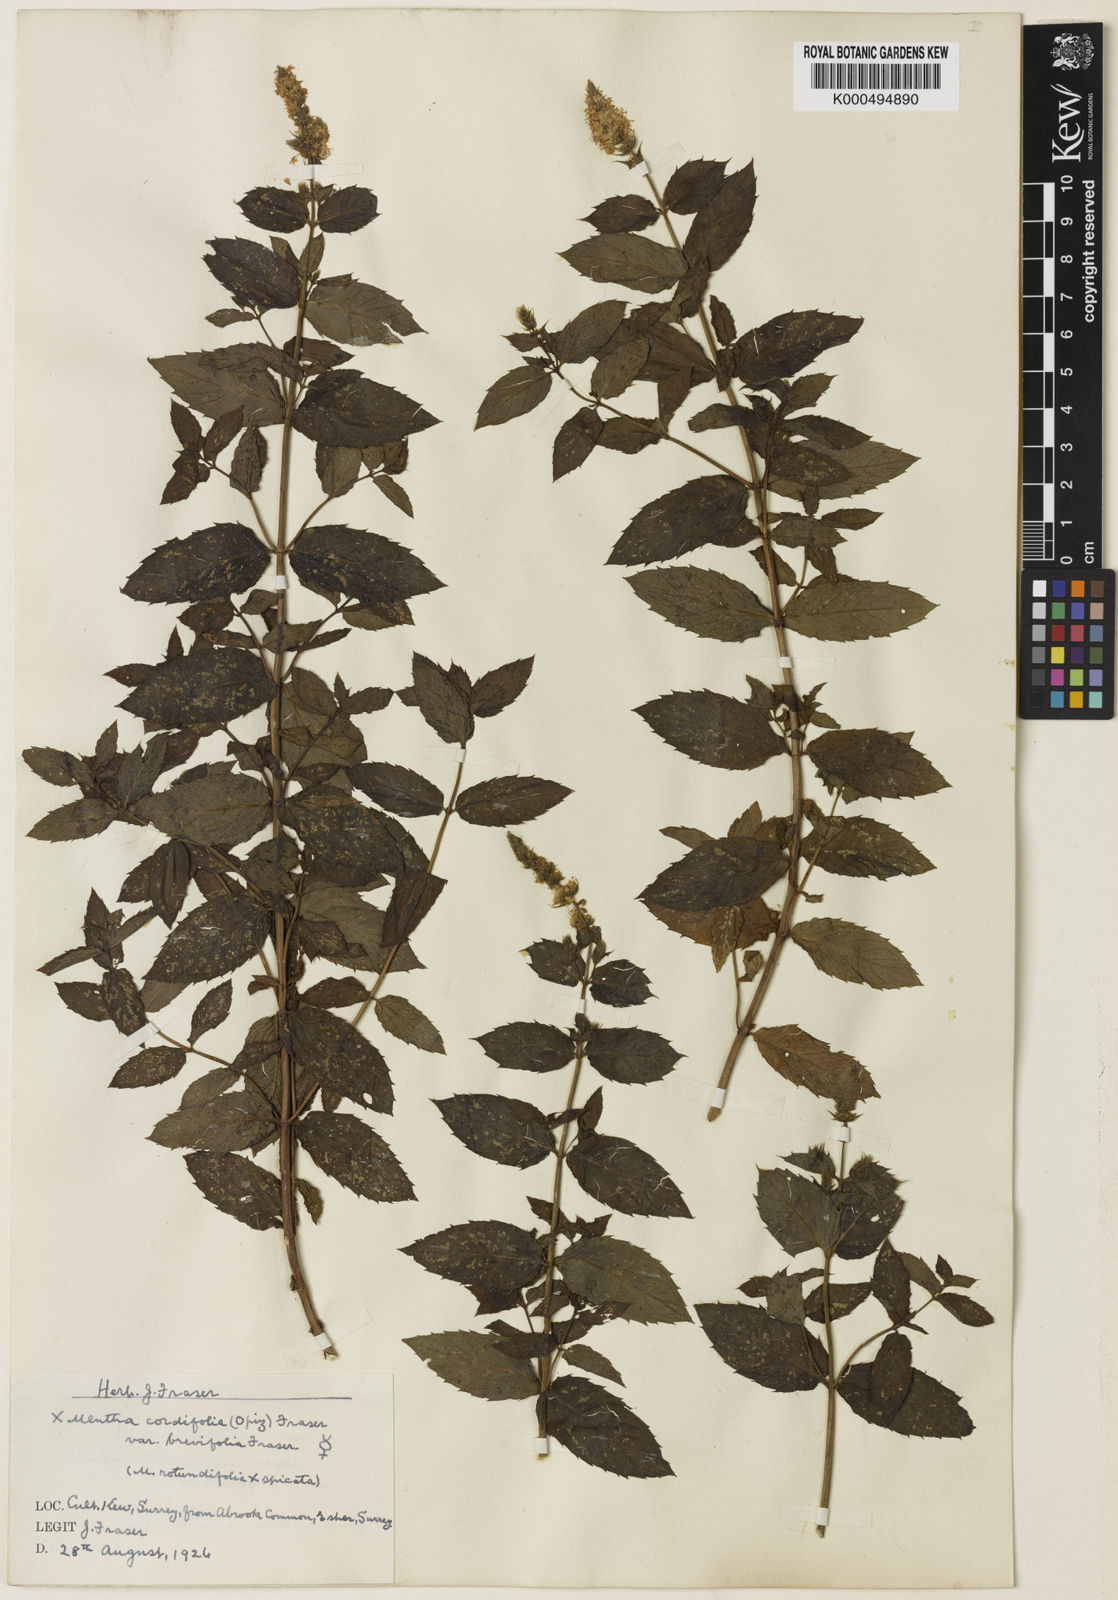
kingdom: Plantae
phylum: Tracheophyta
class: Magnoliopsida
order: Lamiales
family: Lamiaceae
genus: Mentha
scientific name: Mentha villosa
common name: Apple mint
